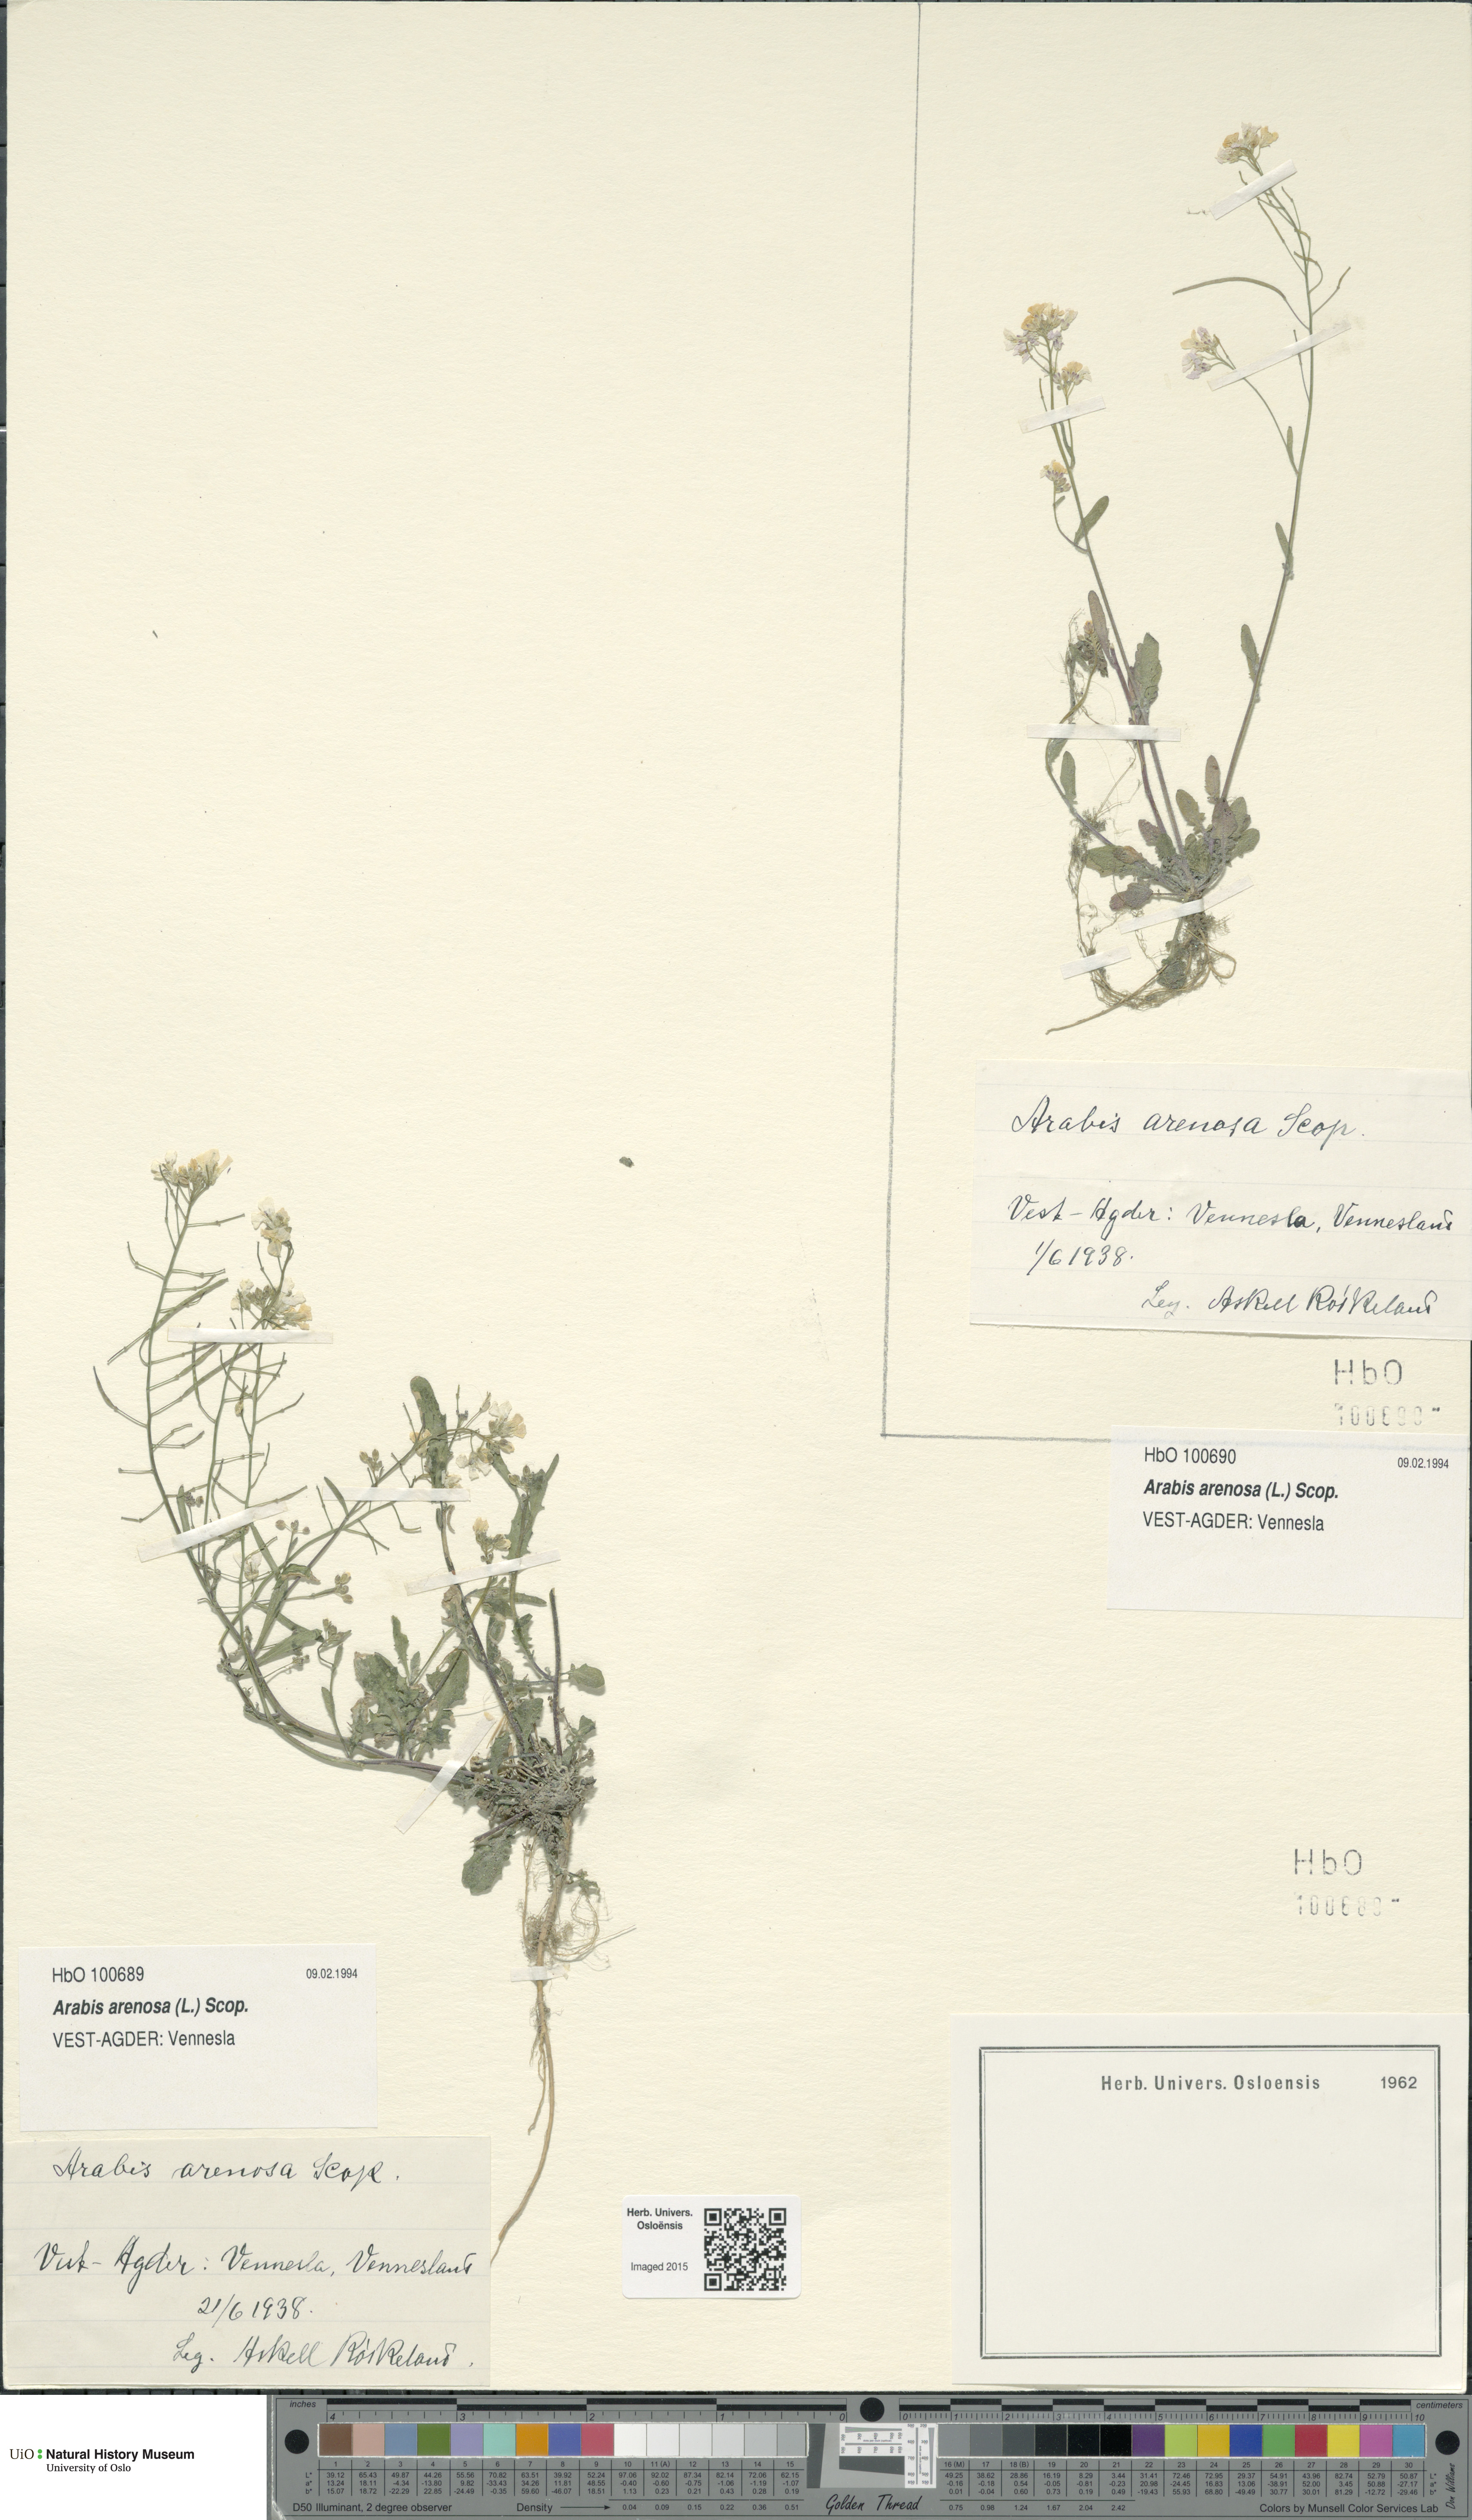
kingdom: Plantae
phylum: Tracheophyta
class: Magnoliopsida
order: Brassicales
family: Brassicaceae
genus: Arabidopsis
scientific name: Arabidopsis arenosa
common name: Sand rock-cress
